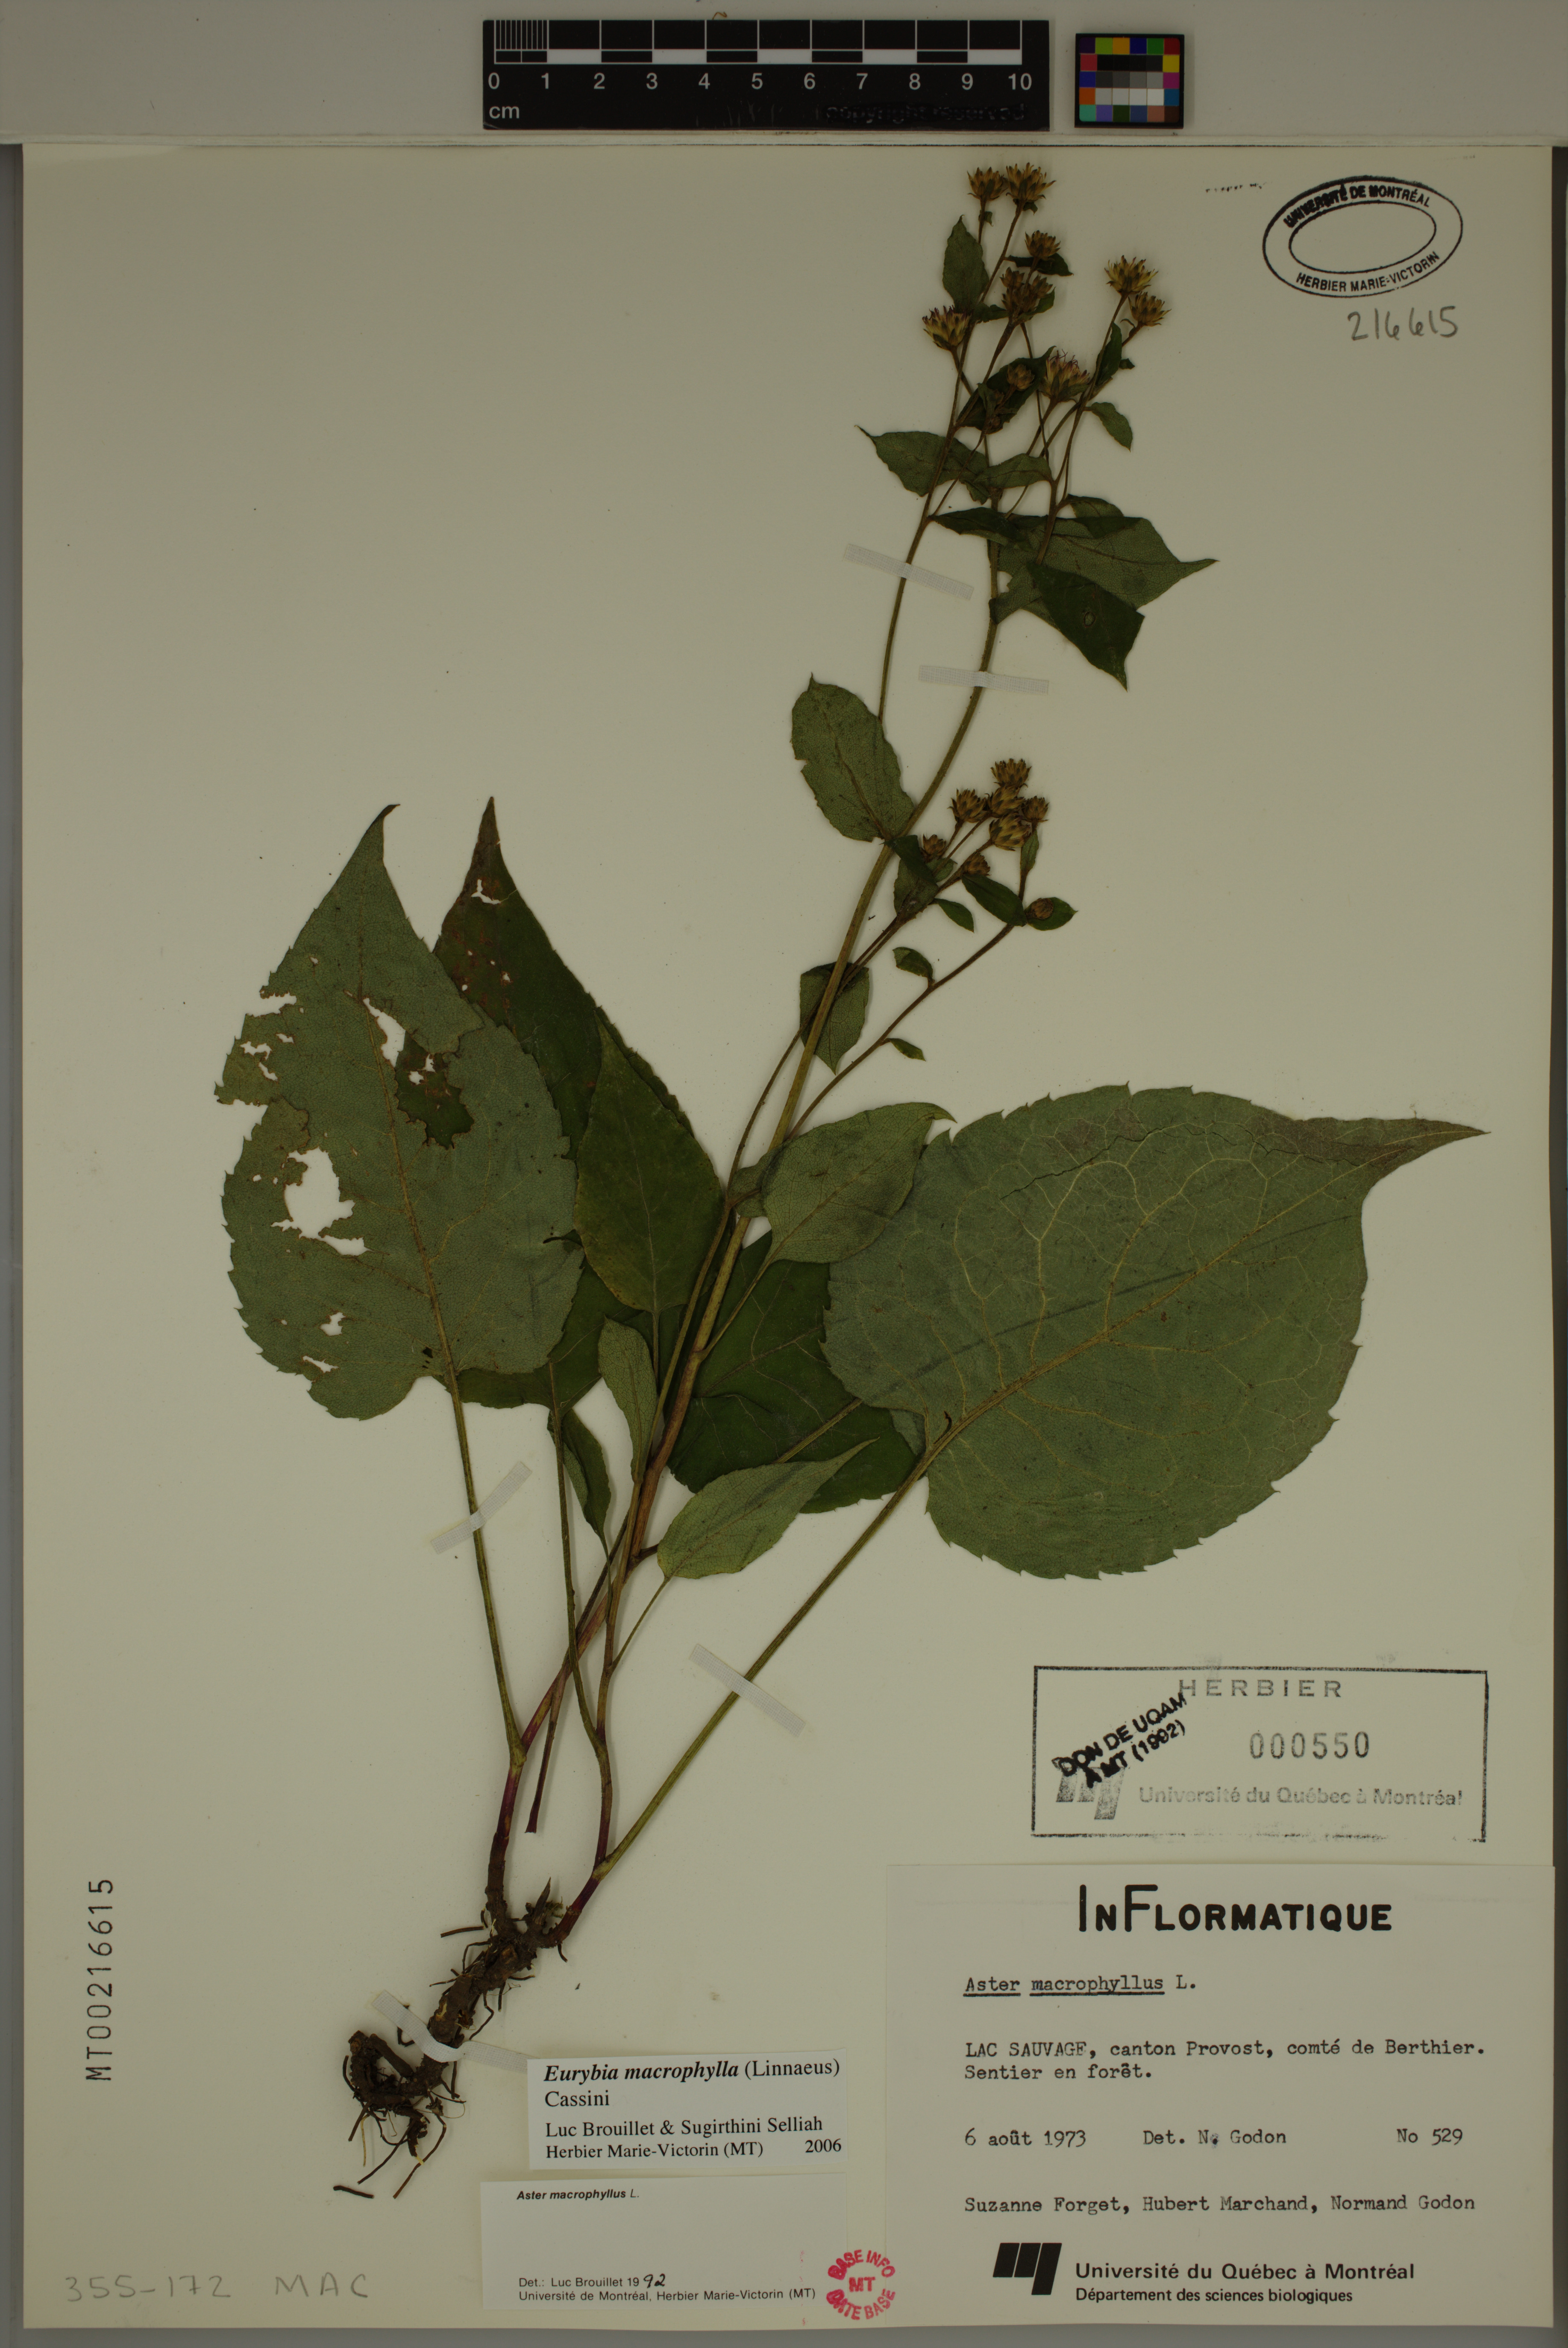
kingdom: Plantae
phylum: Tracheophyta
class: Magnoliopsida
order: Asterales
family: Asteraceae
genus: Eurybia
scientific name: Eurybia macrophylla
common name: Big-leaved aster
